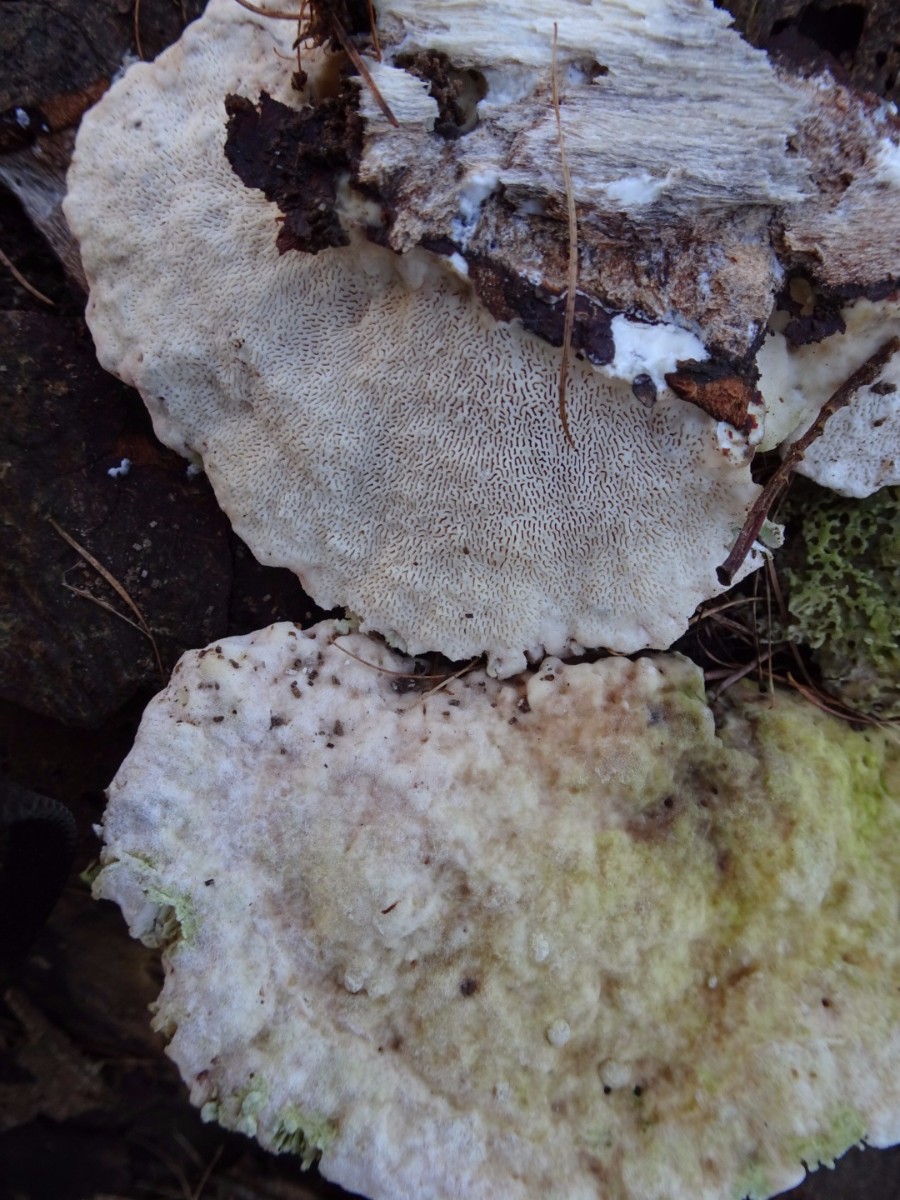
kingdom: Fungi
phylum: Basidiomycota
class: Agaricomycetes
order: Polyporales
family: Polyporaceae
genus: Trametes
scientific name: Trametes gibbosa
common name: puklet læderporesvamp
